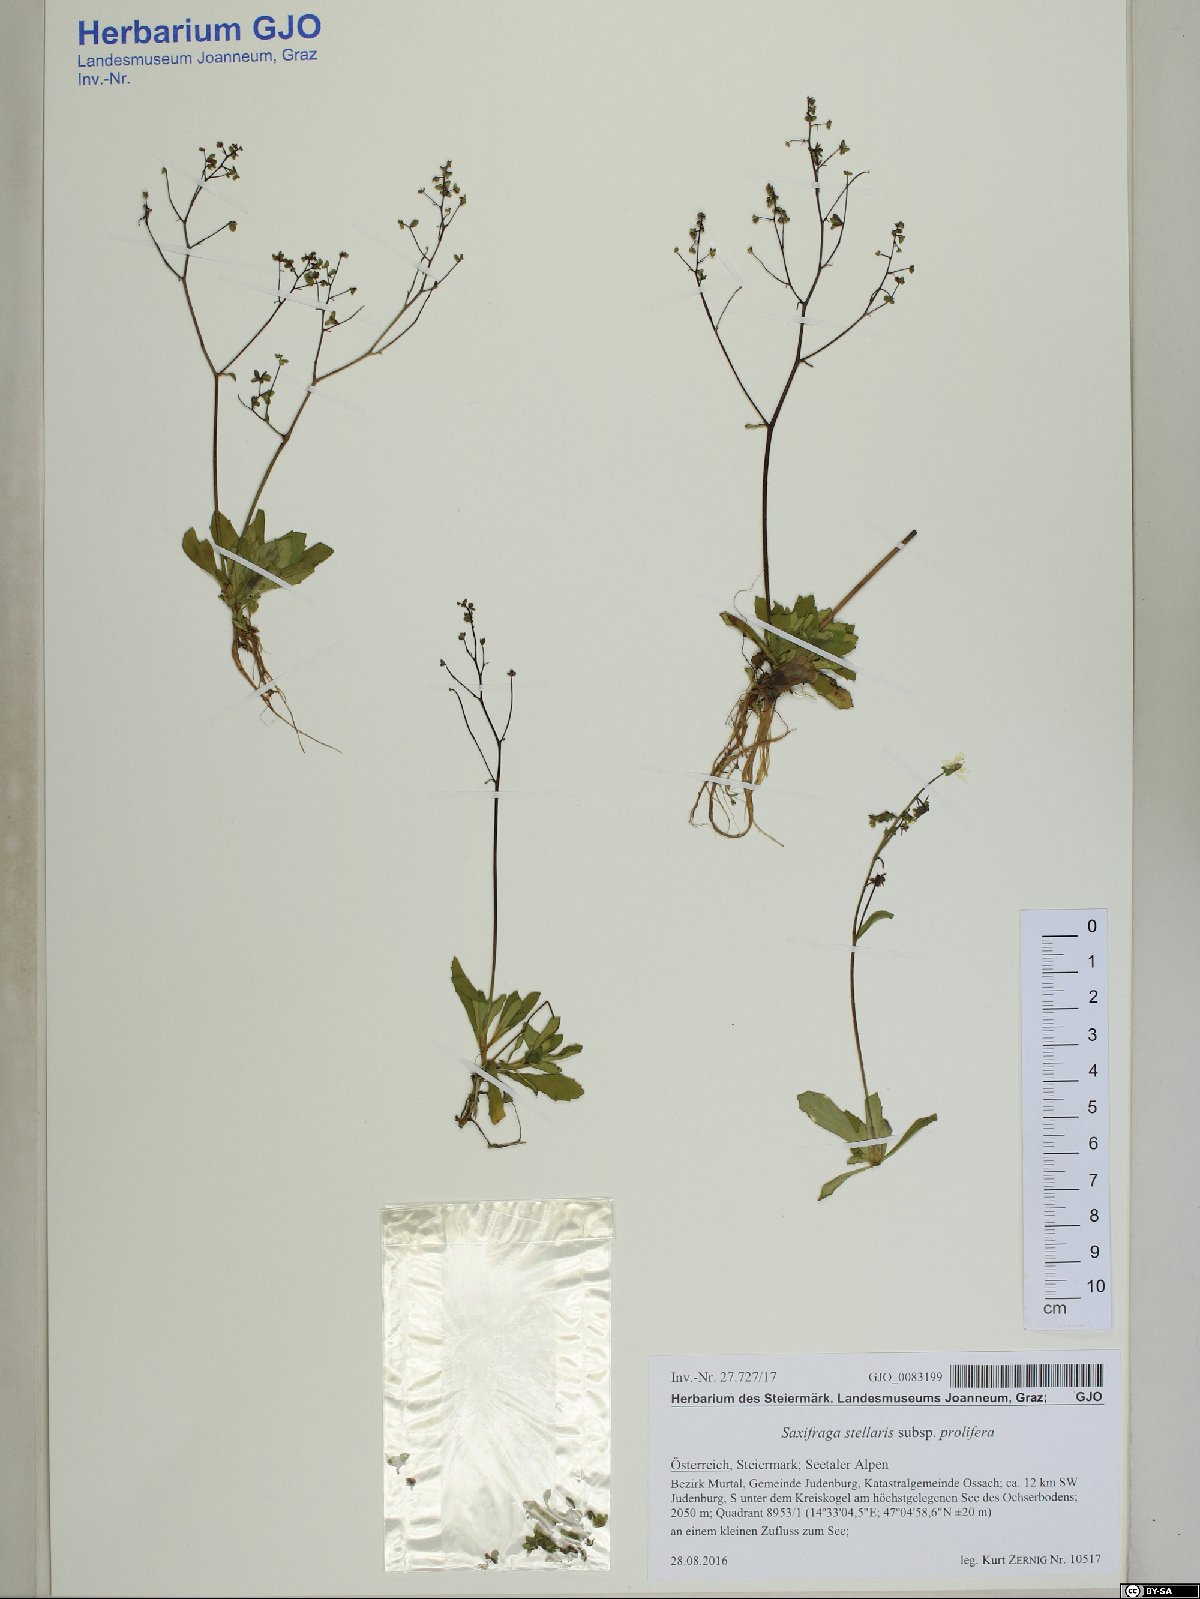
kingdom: Plantae
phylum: Tracheophyta
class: Magnoliopsida
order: Saxifragales
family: Saxifragaceae
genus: Micranthes
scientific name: Micranthes stellaris
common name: Starry saxifrage
